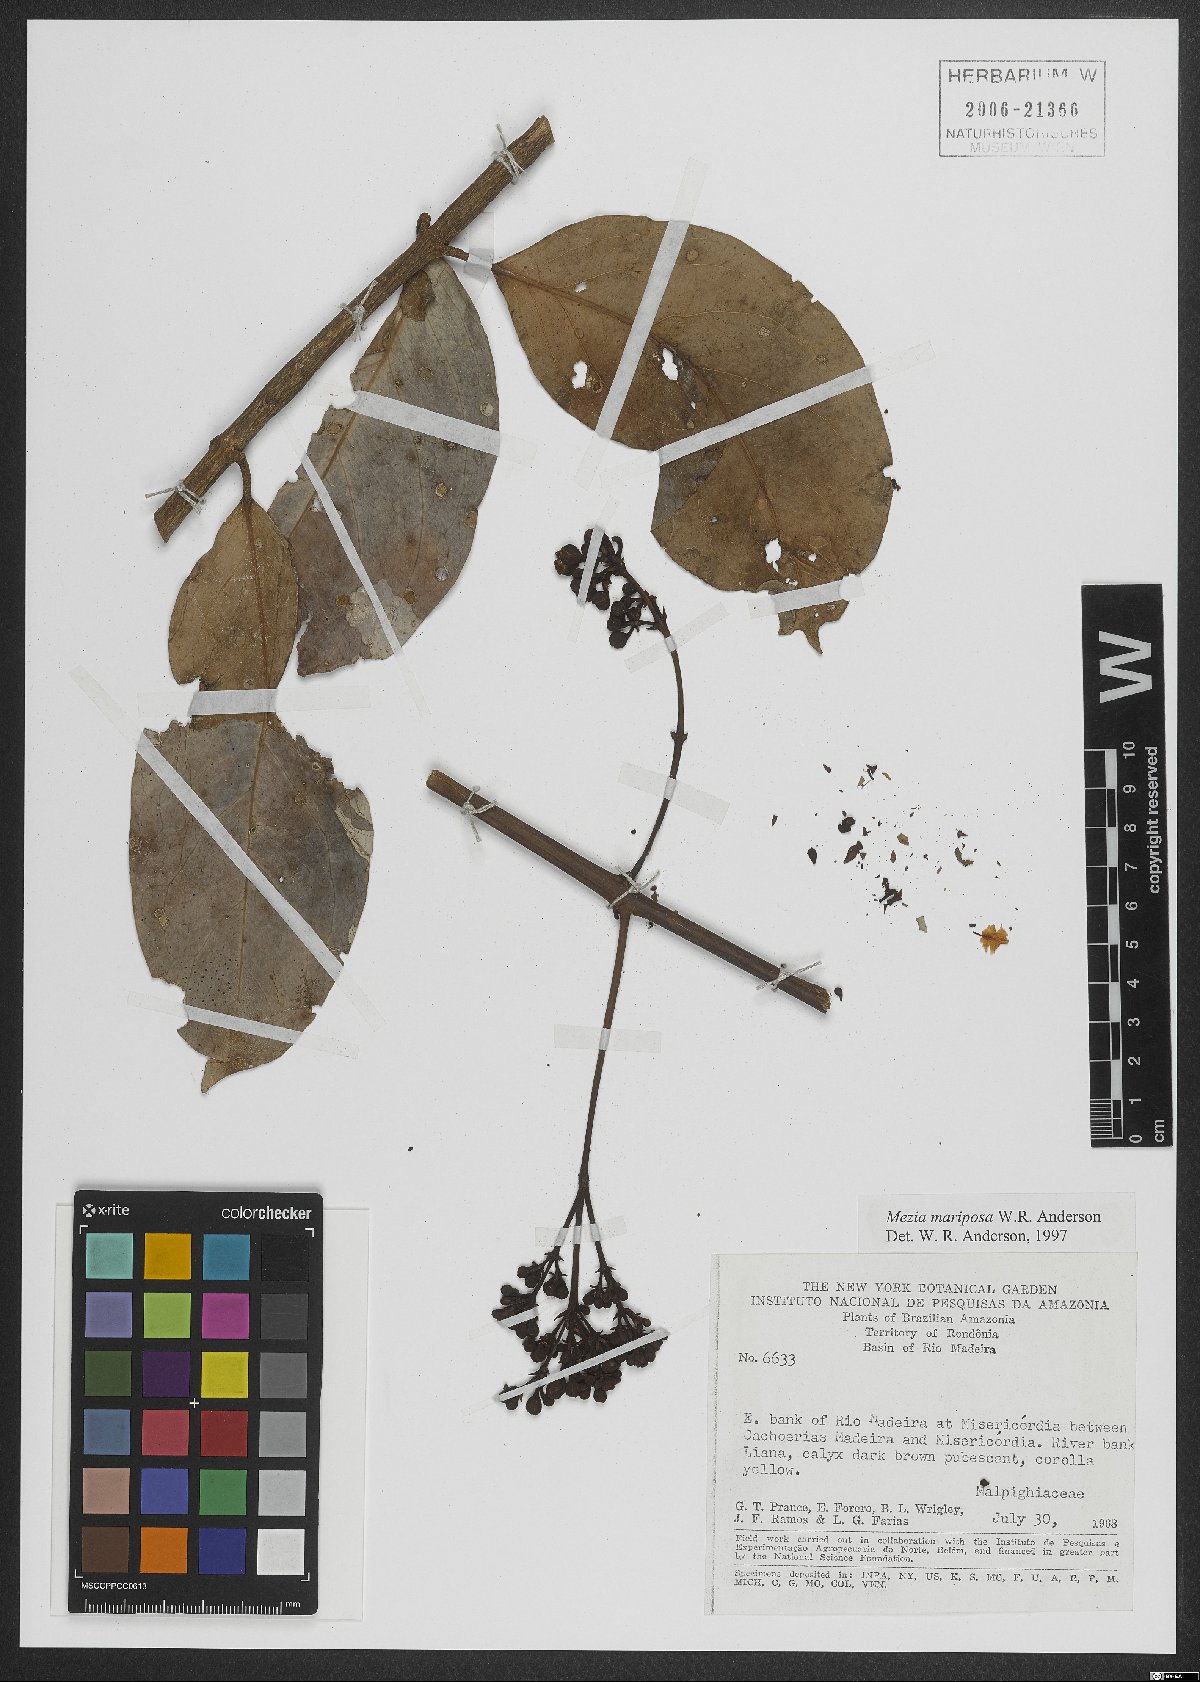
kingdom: Plantae
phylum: Tracheophyta
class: Magnoliopsida
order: Malpighiales
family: Malpighiaceae
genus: Mezia
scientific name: Mezia mariposa
